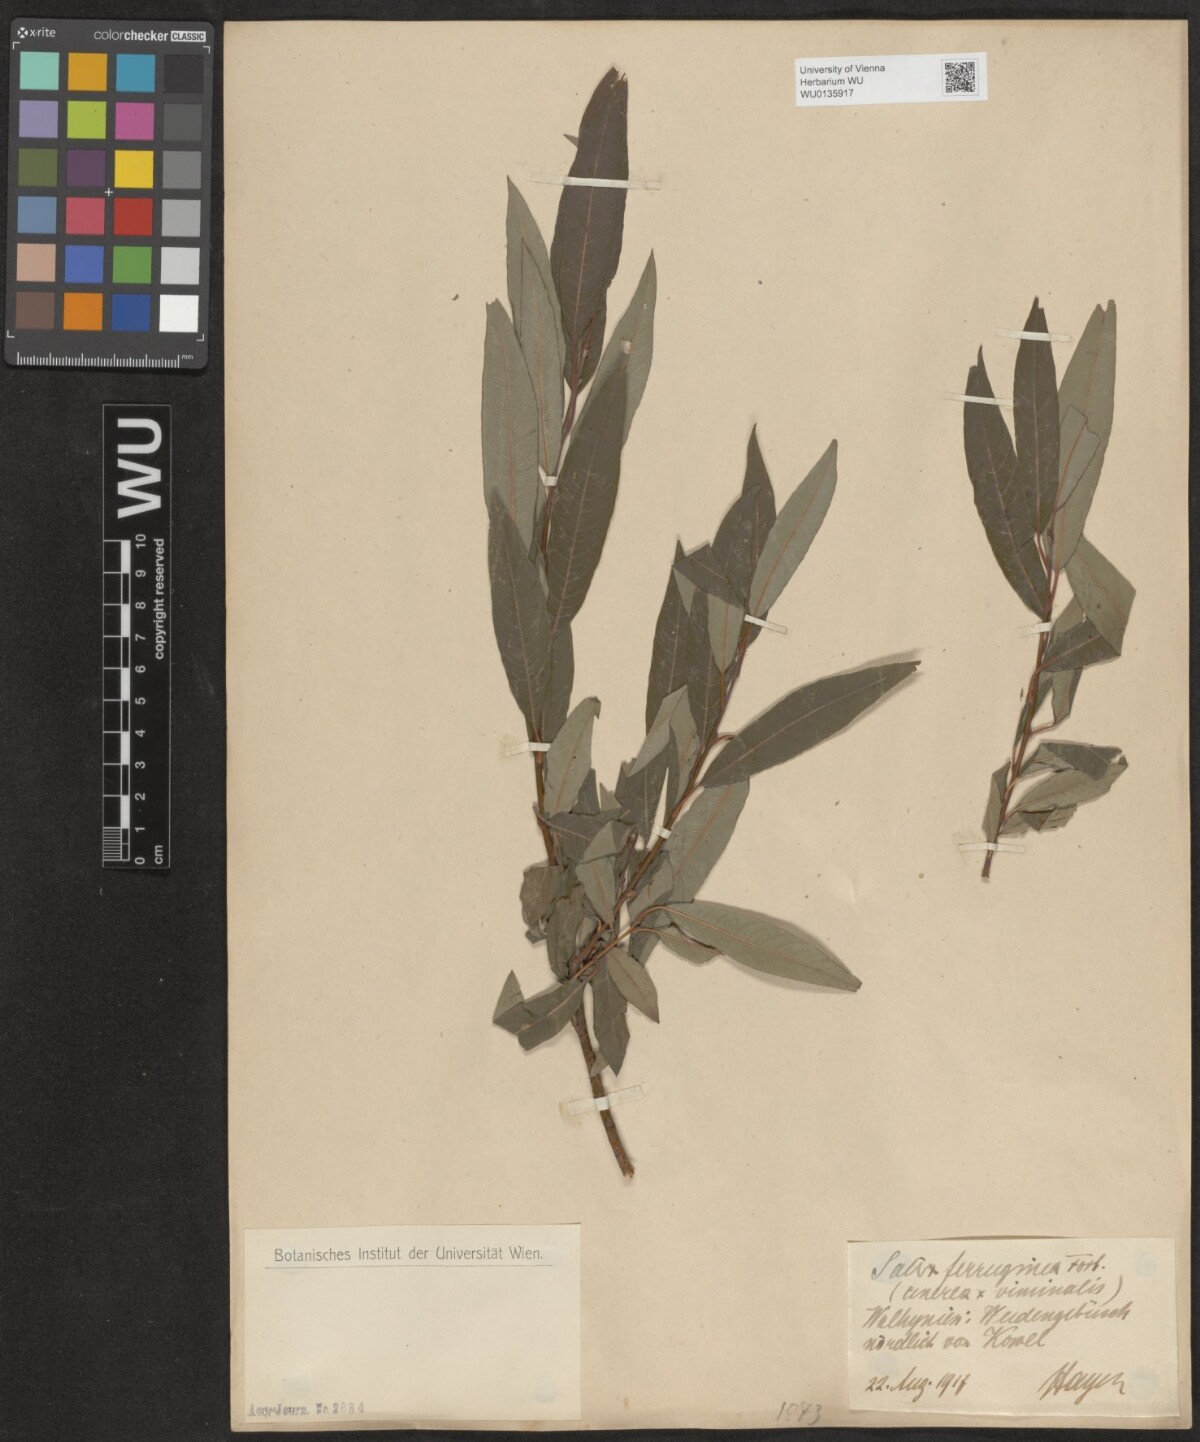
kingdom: Plantae
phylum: Tracheophyta
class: Magnoliopsida
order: Malpighiales
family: Salicaceae
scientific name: Salicaceae
